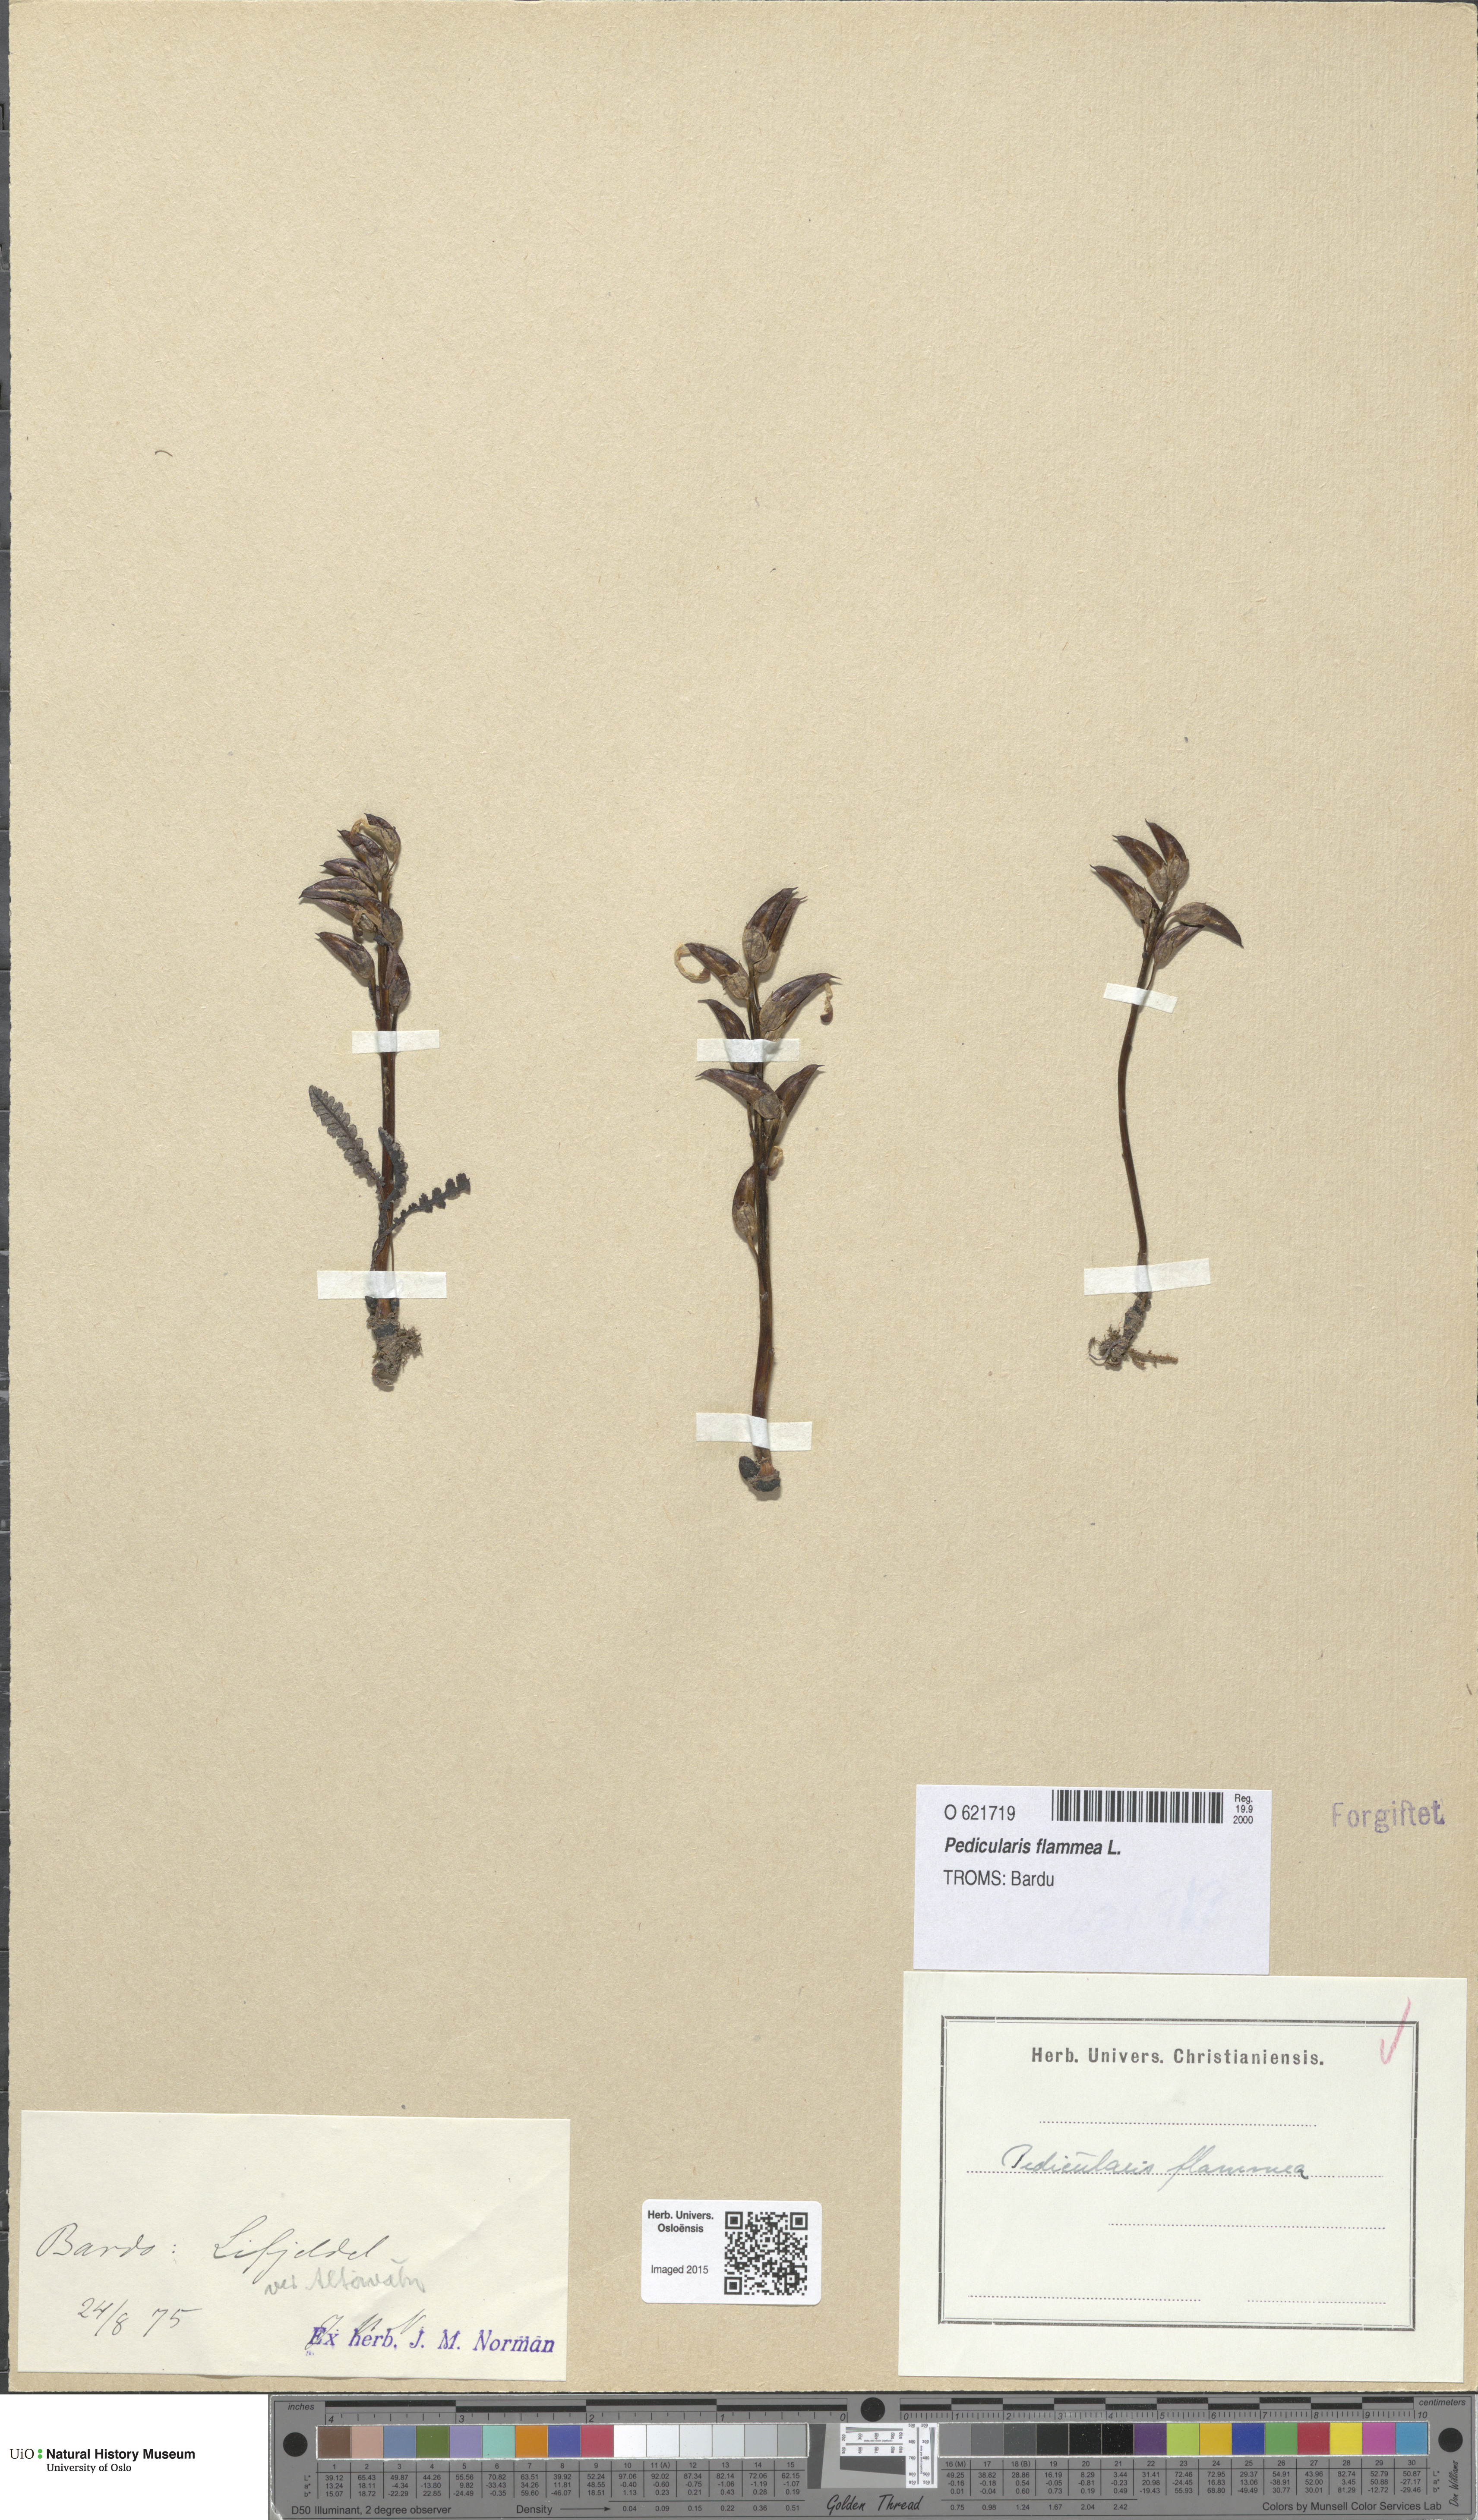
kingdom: Plantae
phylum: Tracheophyta
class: Magnoliopsida
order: Lamiales
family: Orobanchaceae
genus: Pedicularis
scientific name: Pedicularis flammea
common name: Flame-coloured lousewort
